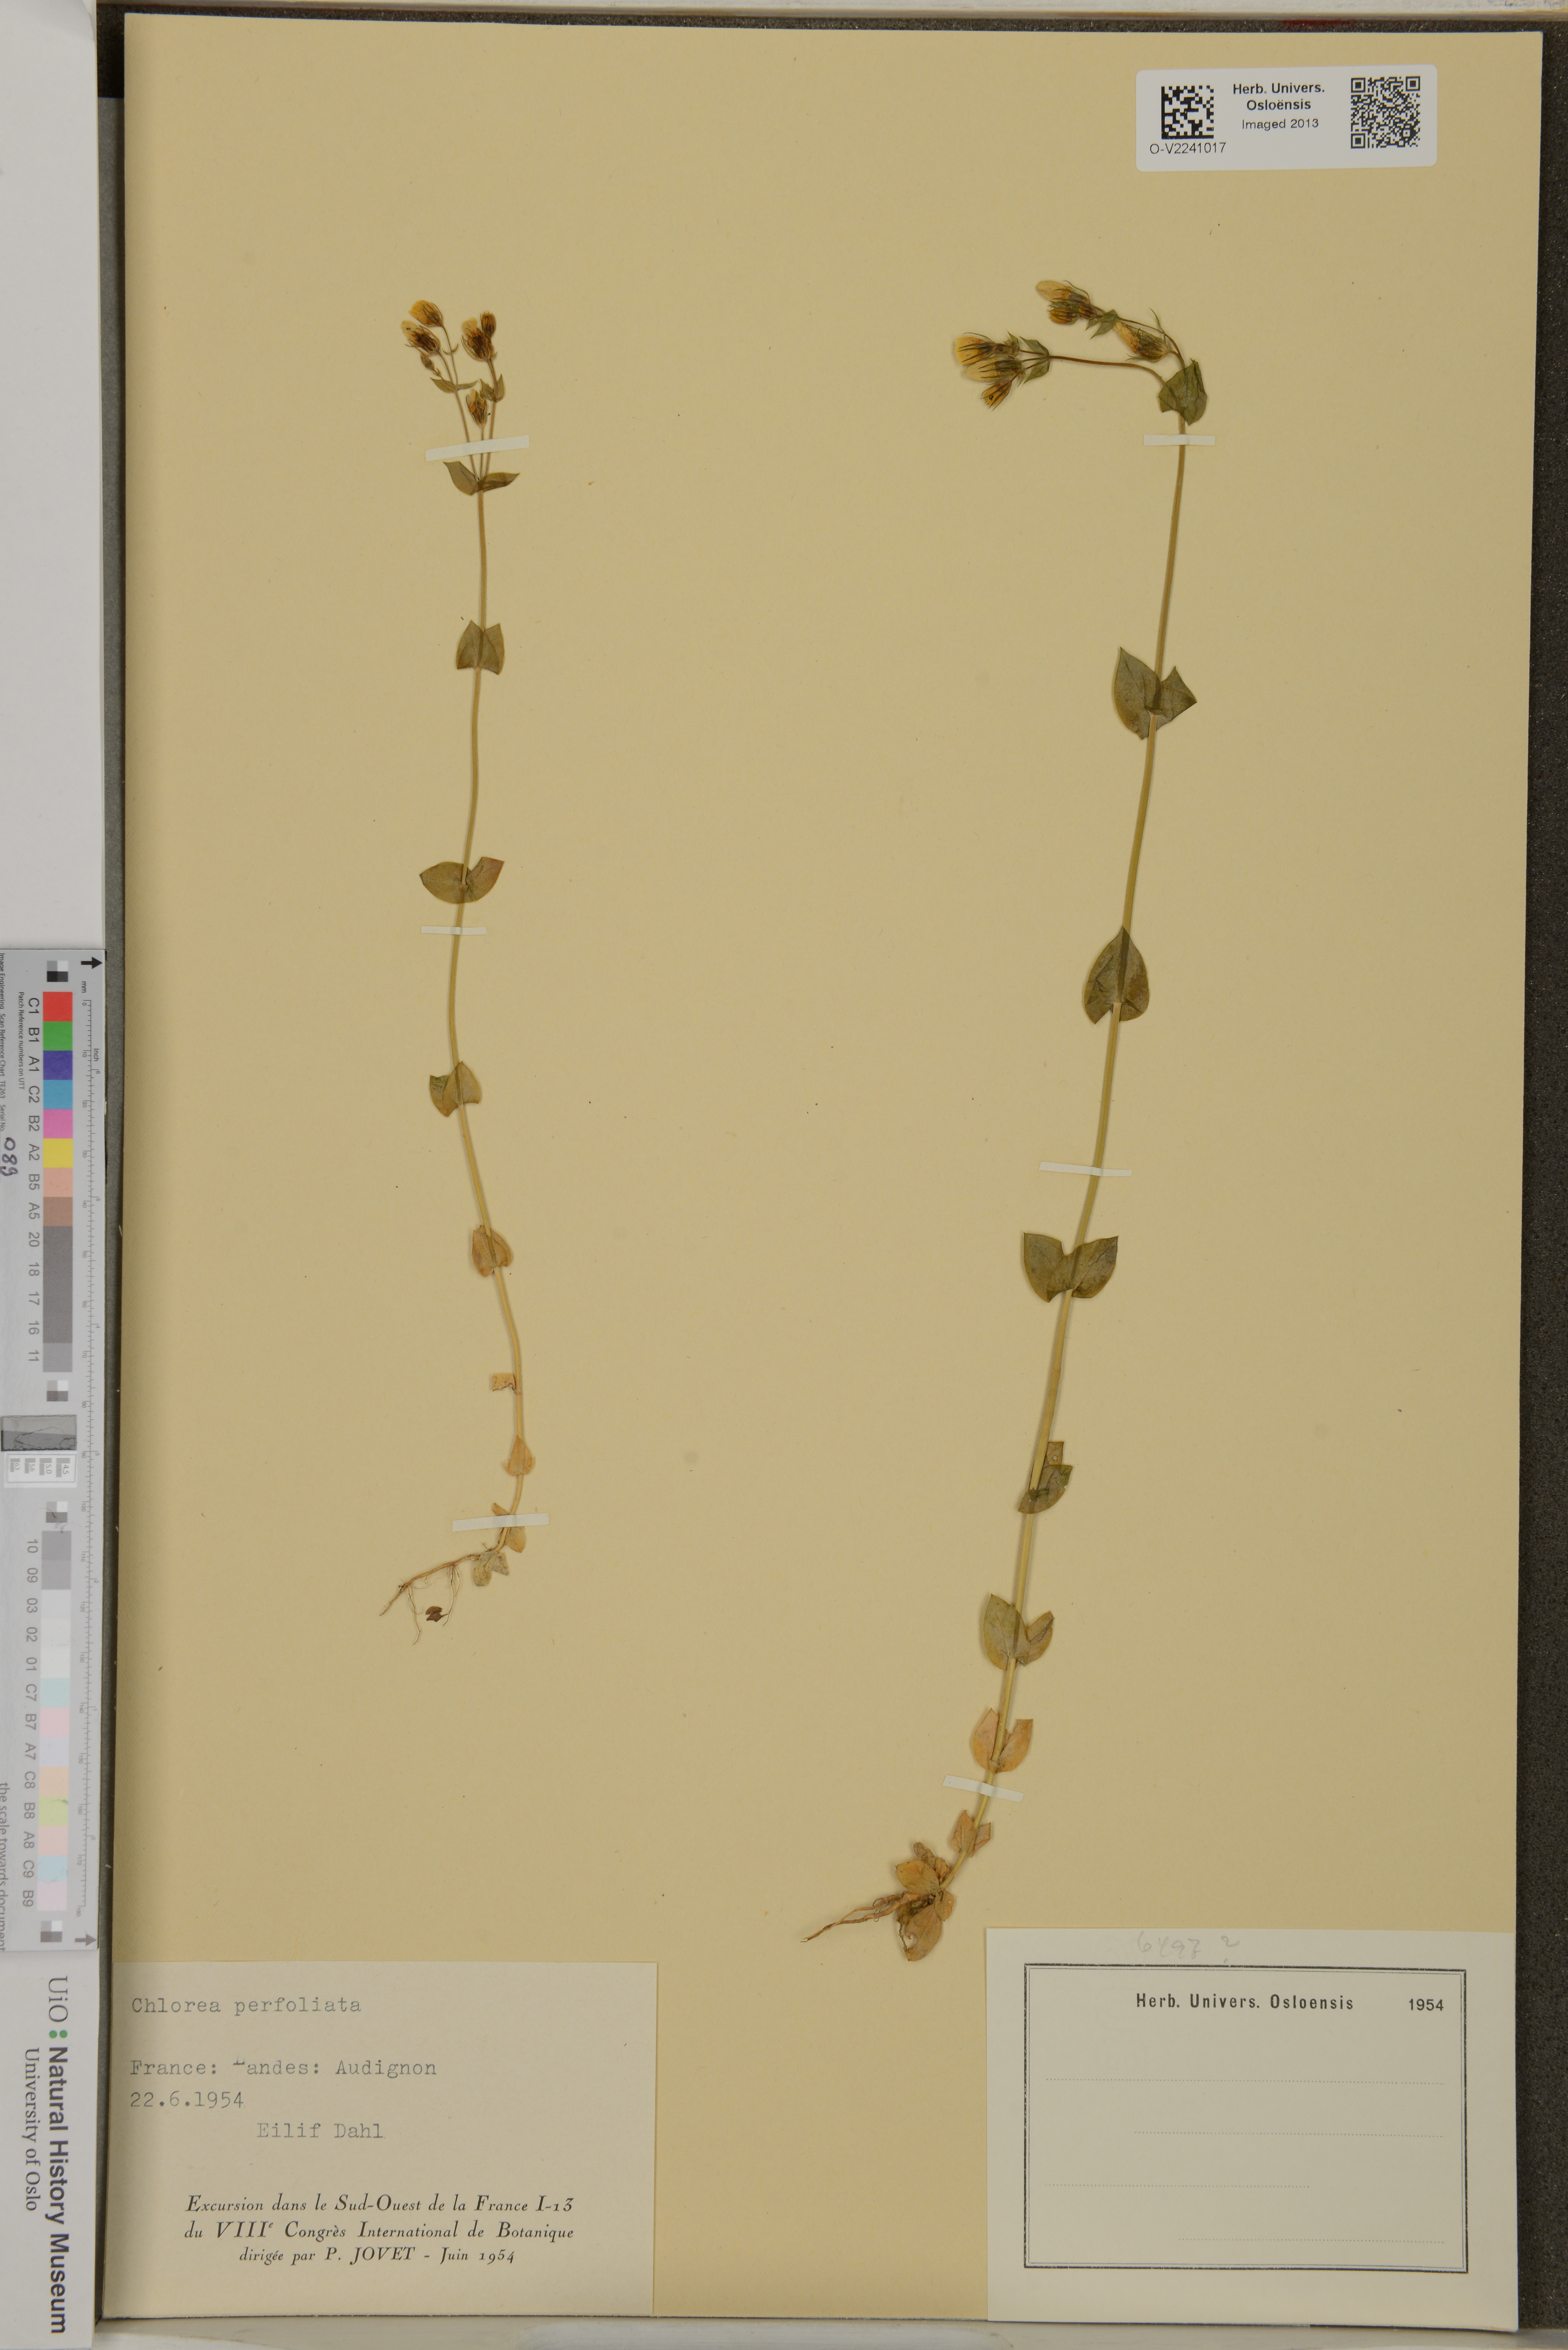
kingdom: Plantae
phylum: Tracheophyta
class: Magnoliopsida
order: Gentianales
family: Gentianaceae
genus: Blackstonia
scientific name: Blackstonia perfoliata
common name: Yellow-wort
